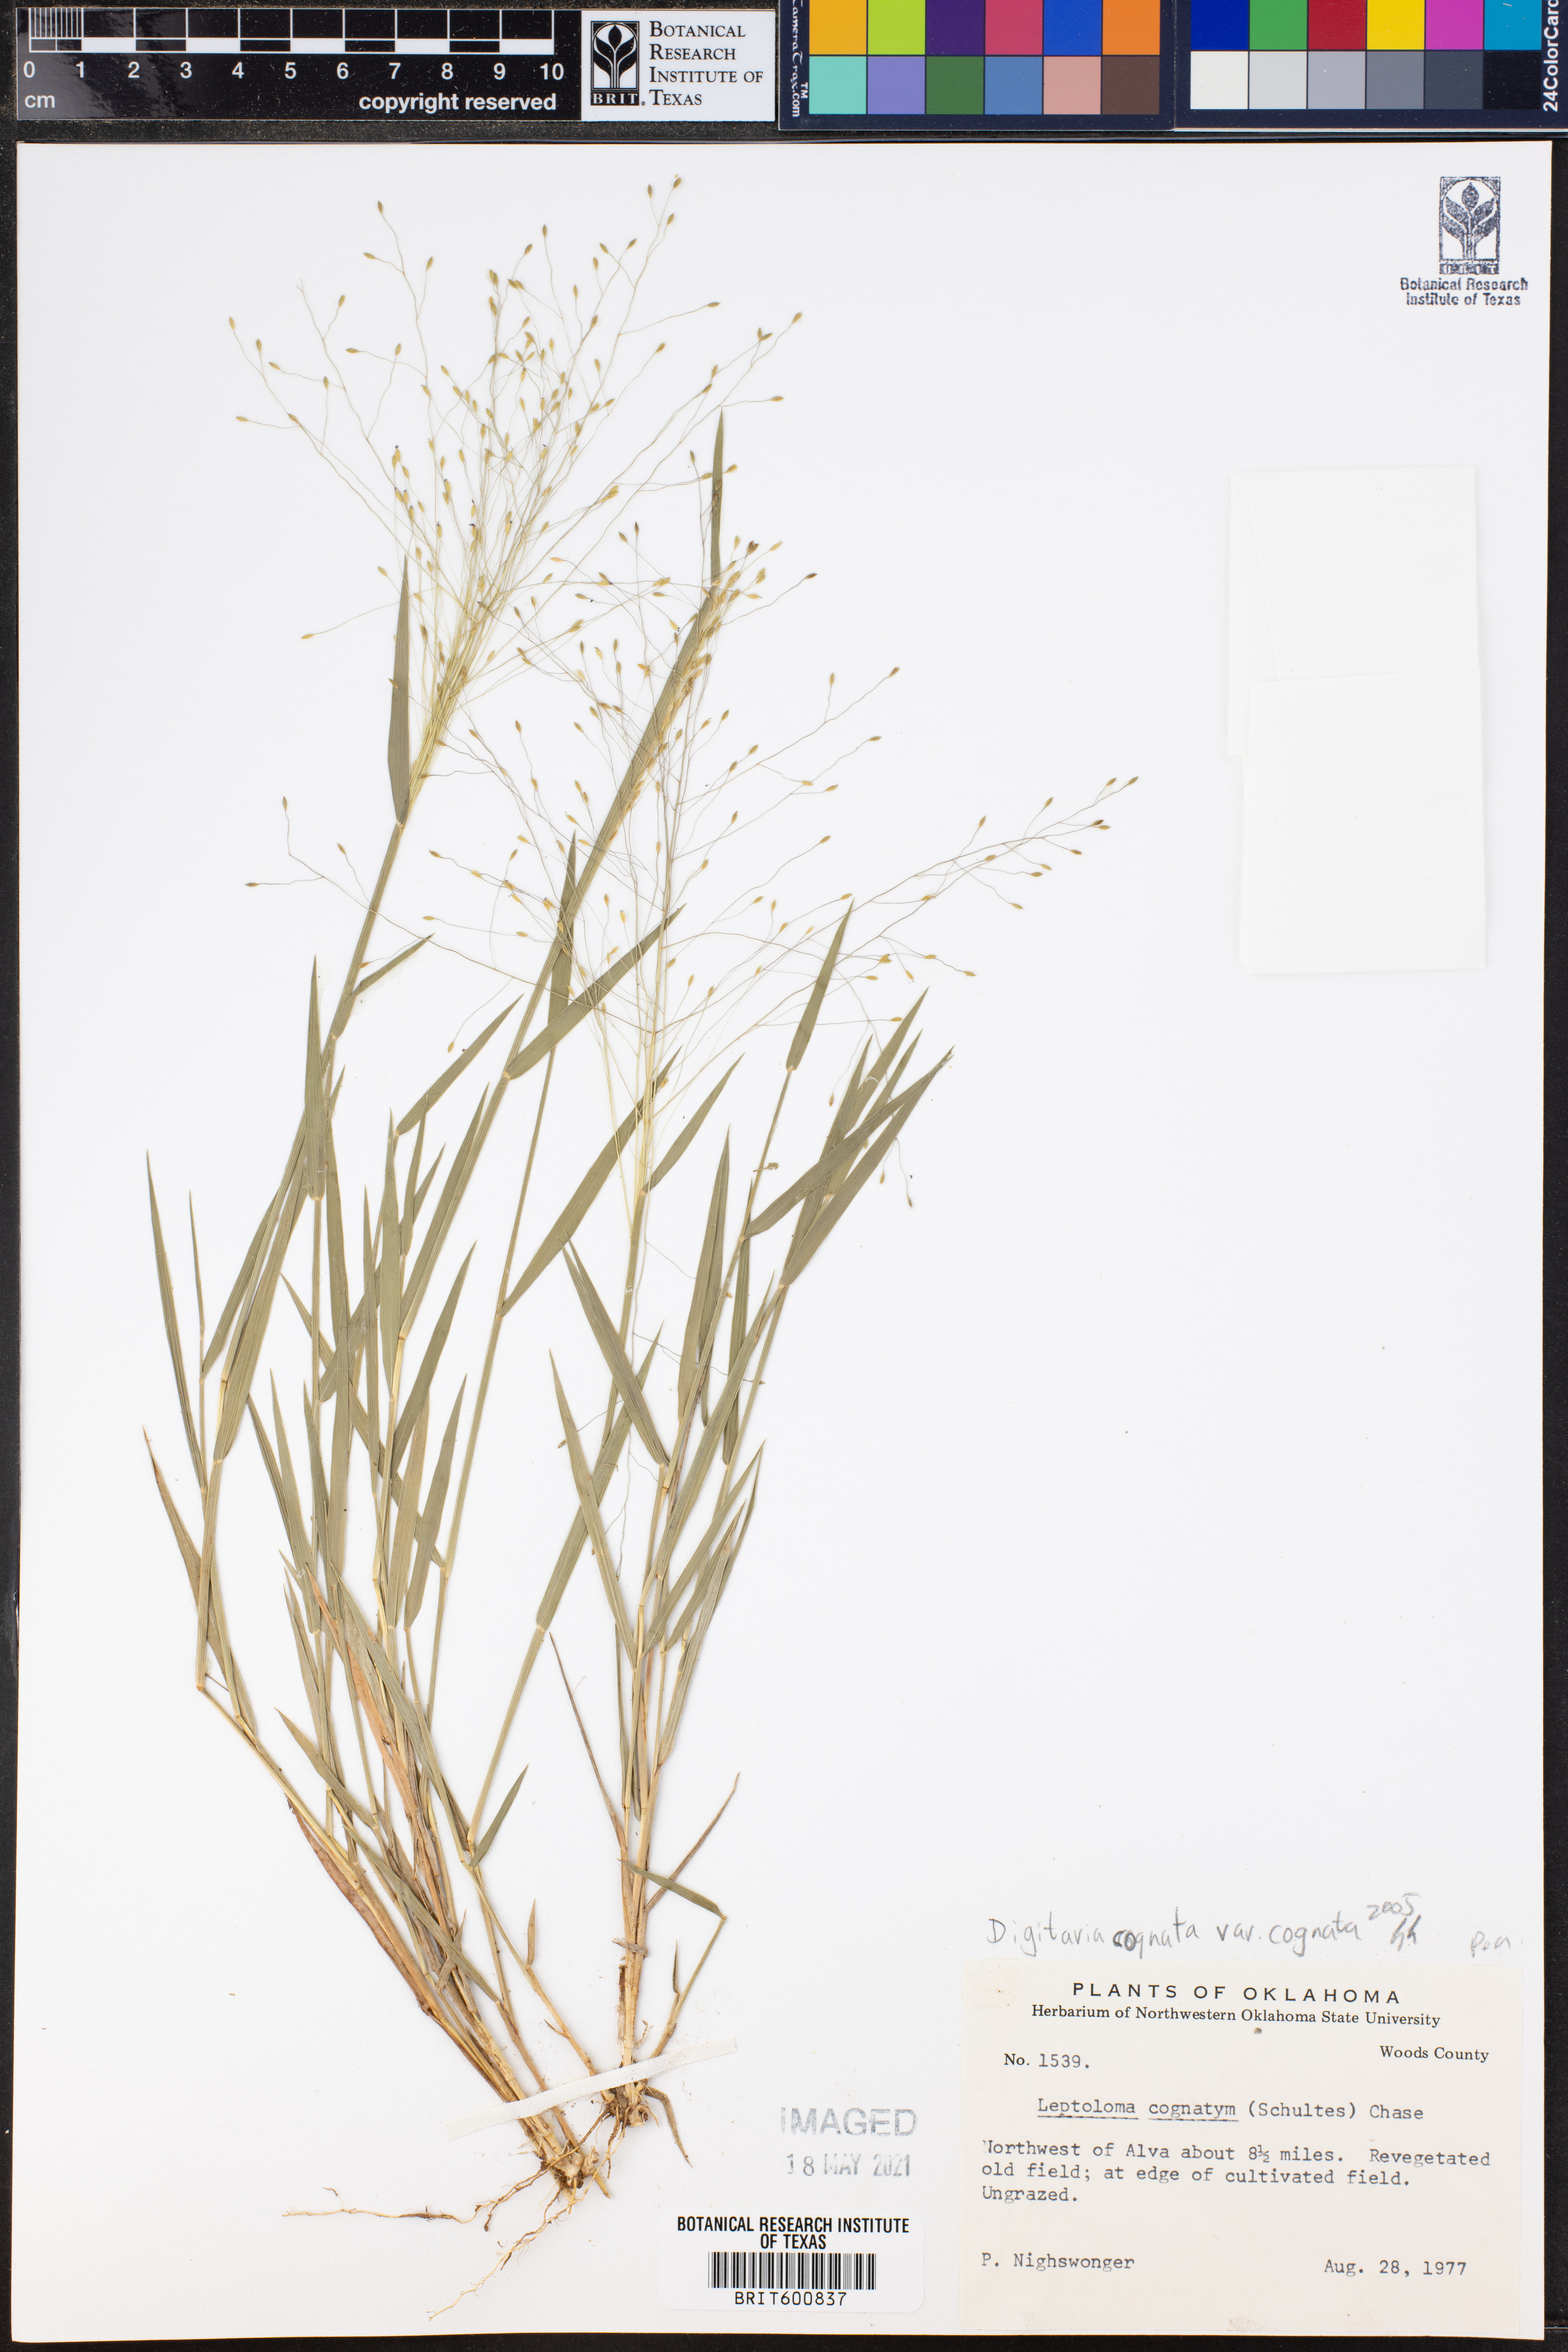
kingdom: Plantae
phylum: Tracheophyta
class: Liliopsida
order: Poales
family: Poaceae
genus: Digitaria
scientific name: Digitaria cognata
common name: Fall witchgrass
